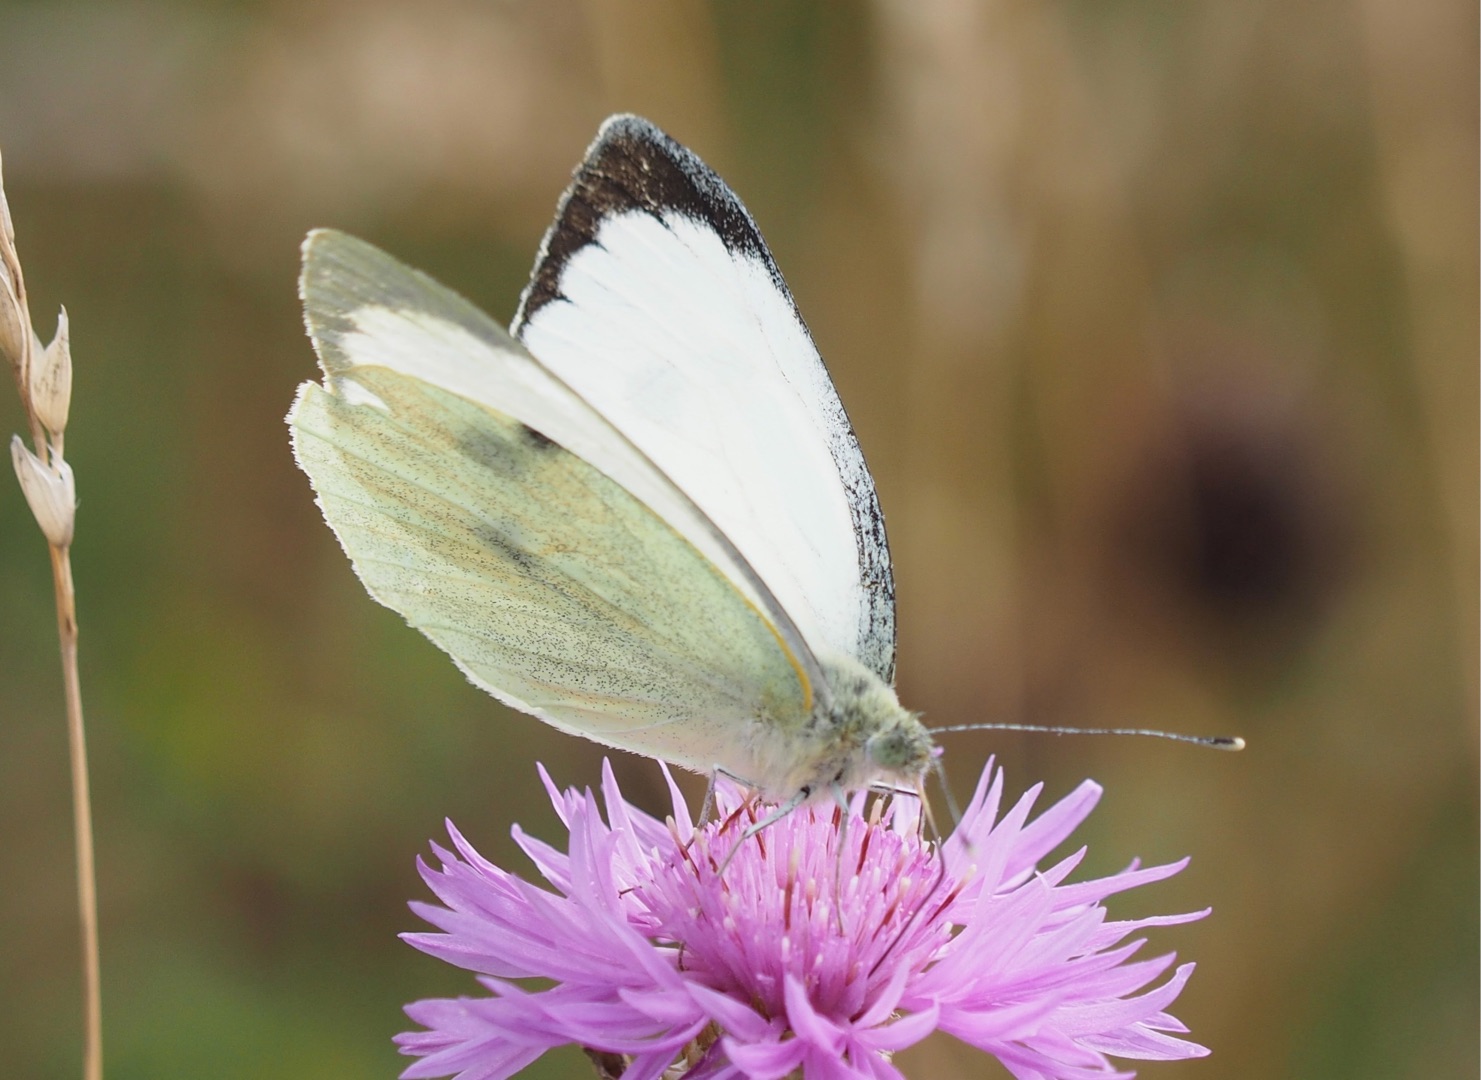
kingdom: Animalia
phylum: Arthropoda
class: Insecta
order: Lepidoptera
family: Pieridae
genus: Pieris
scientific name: Pieris brassicae
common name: Stor kålsommerfugl
